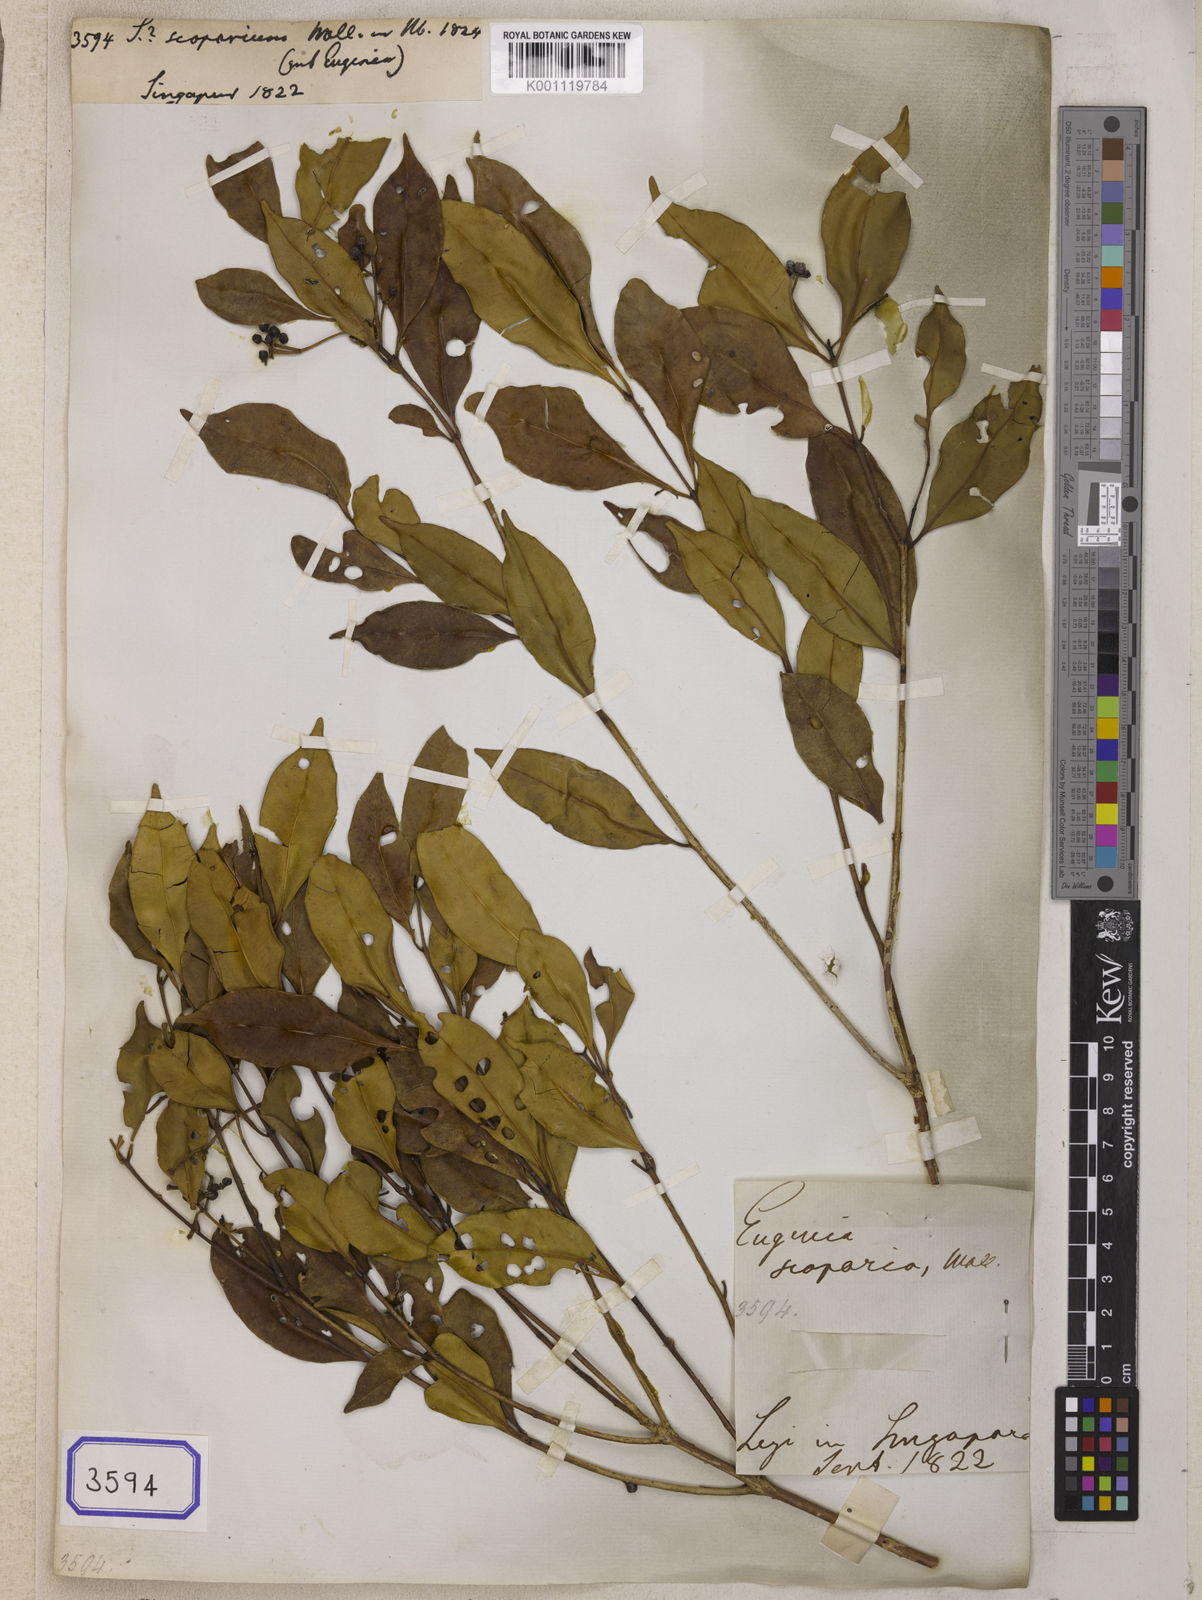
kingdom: Plantae
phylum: Tracheophyta
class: Magnoliopsida
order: Myrtales
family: Myrtaceae
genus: Syzygium
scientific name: Syzygium
